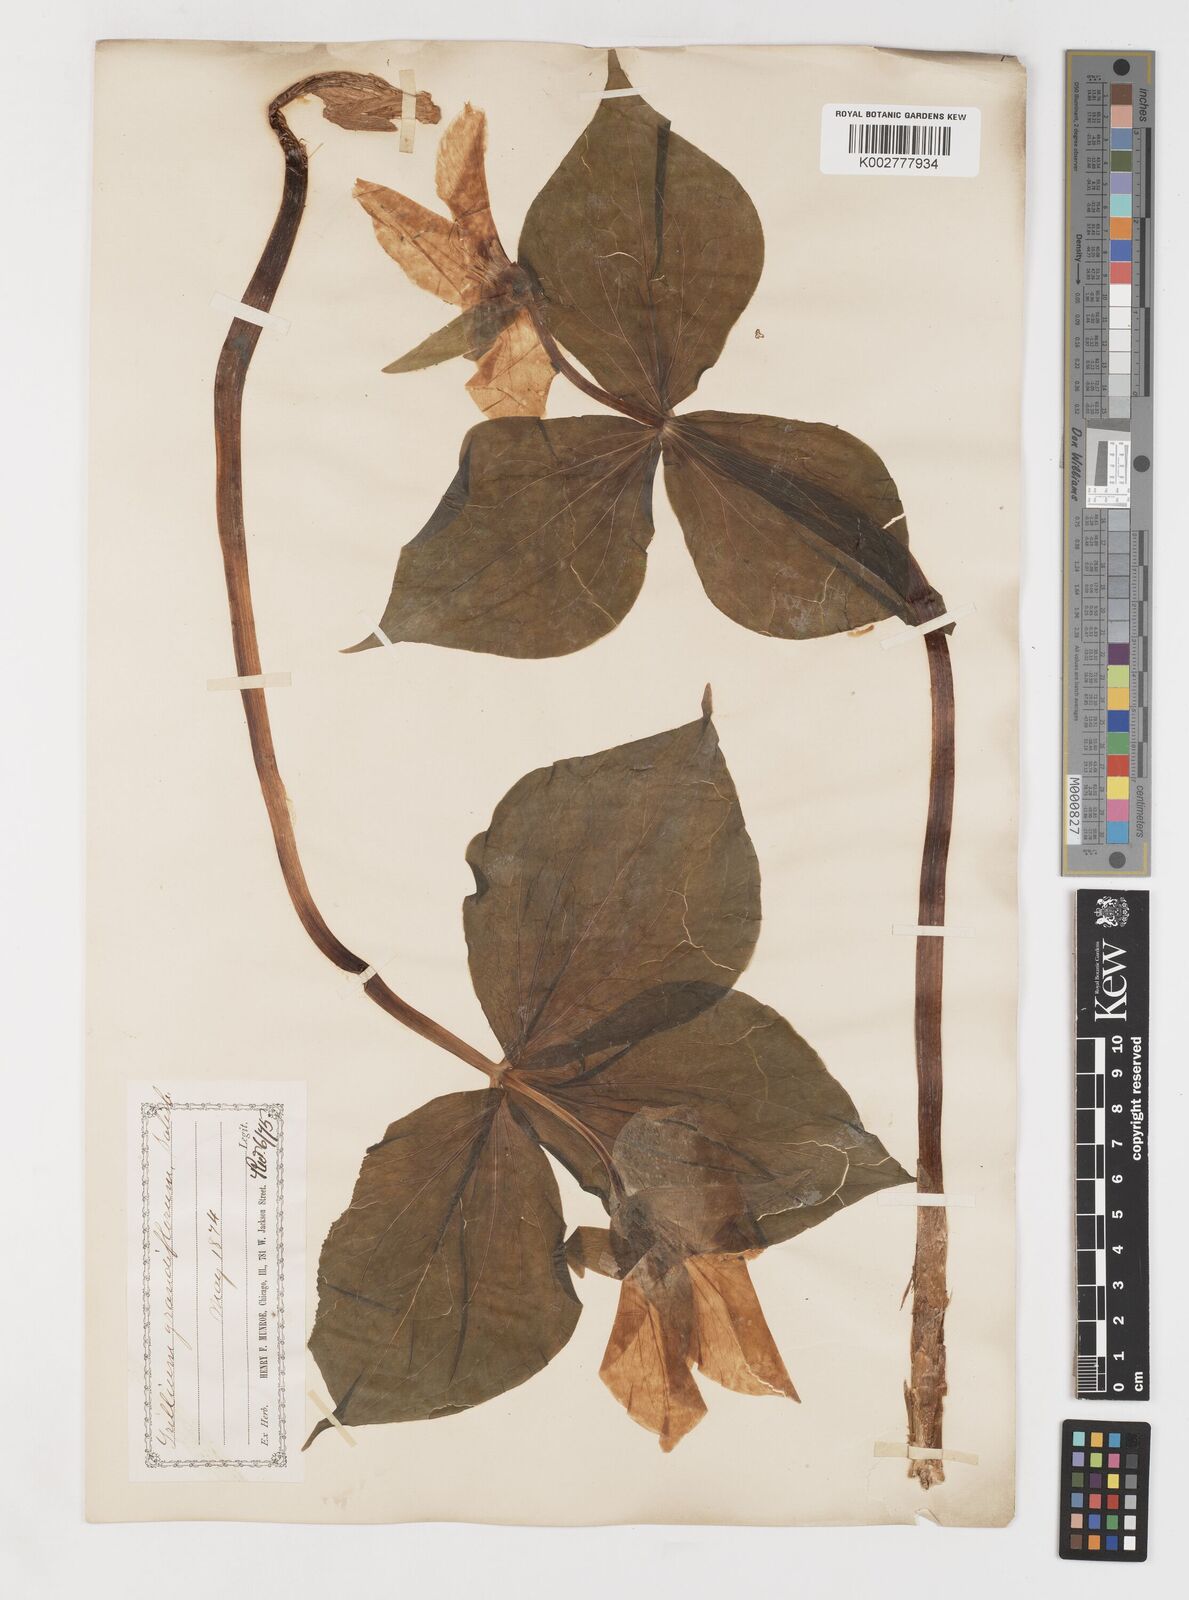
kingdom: Plantae
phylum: Tracheophyta
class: Liliopsida
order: Liliales
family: Melanthiaceae
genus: Trillium
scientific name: Trillium grandiflorum
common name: Great white trillium
